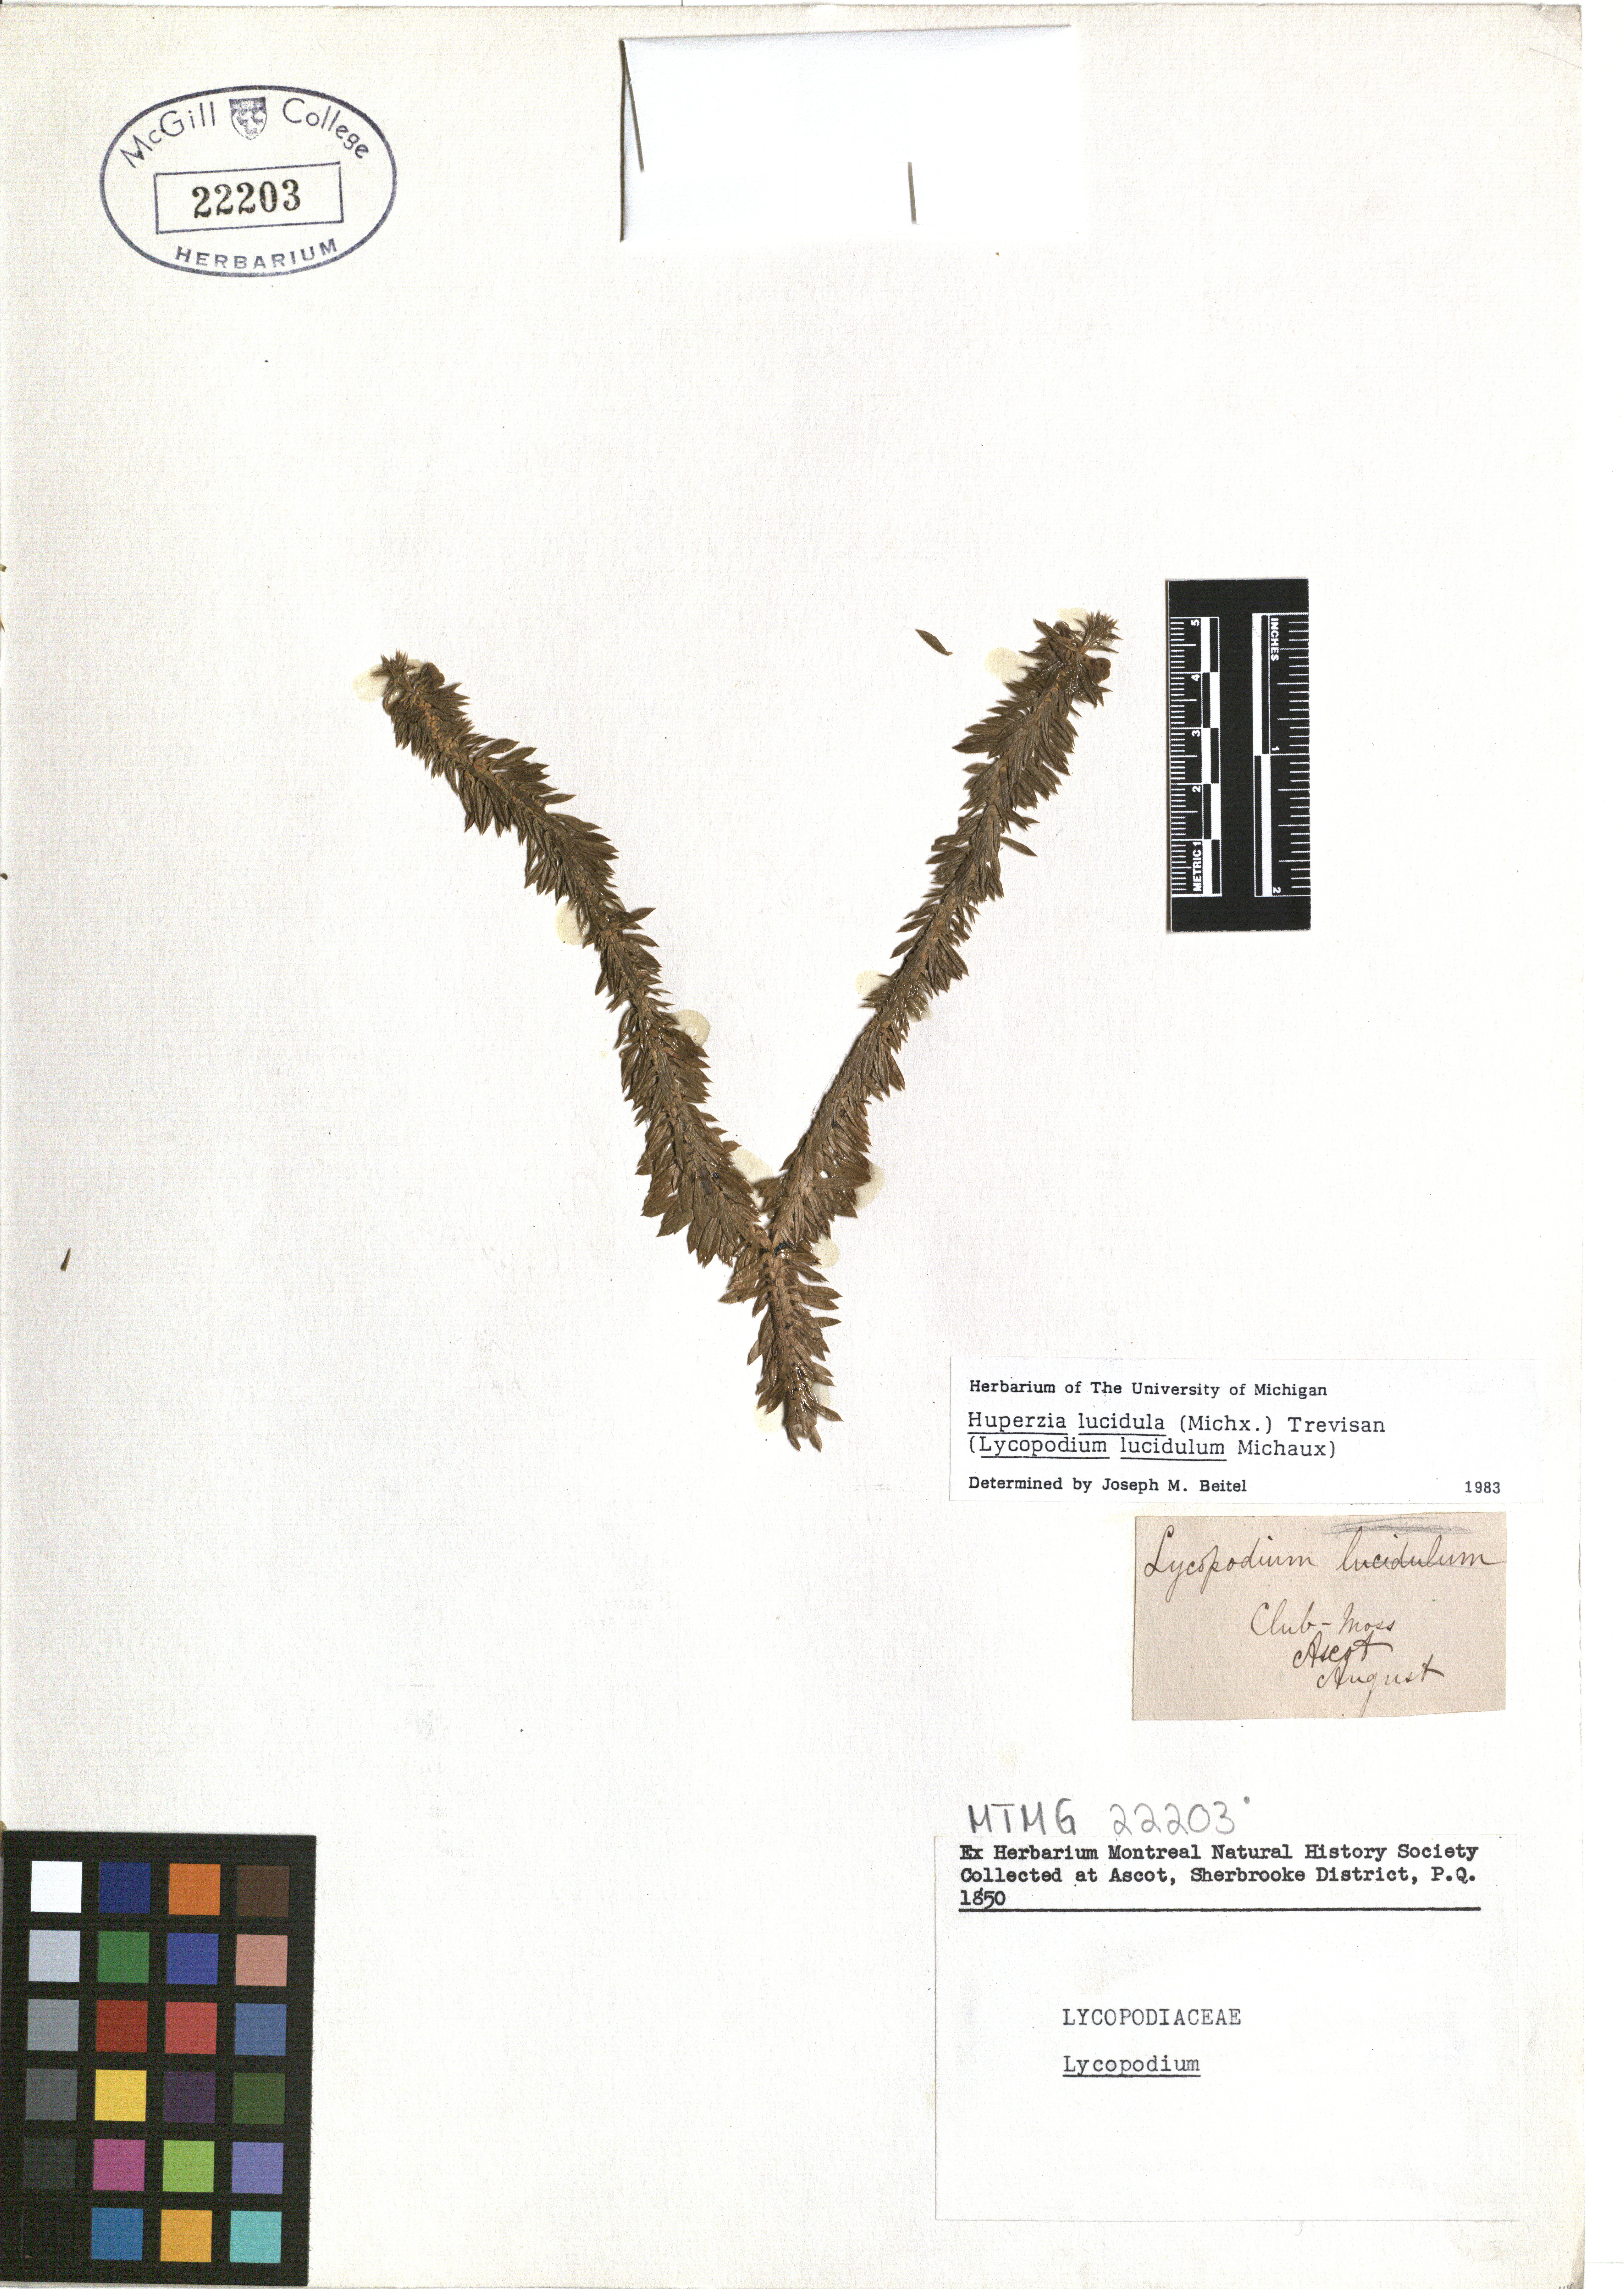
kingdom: Plantae
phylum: Tracheophyta
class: Lycopodiopsida
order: Lycopodiales
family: Lycopodiaceae
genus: Huperzia
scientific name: Huperzia lucidula
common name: Shining clubmoss
